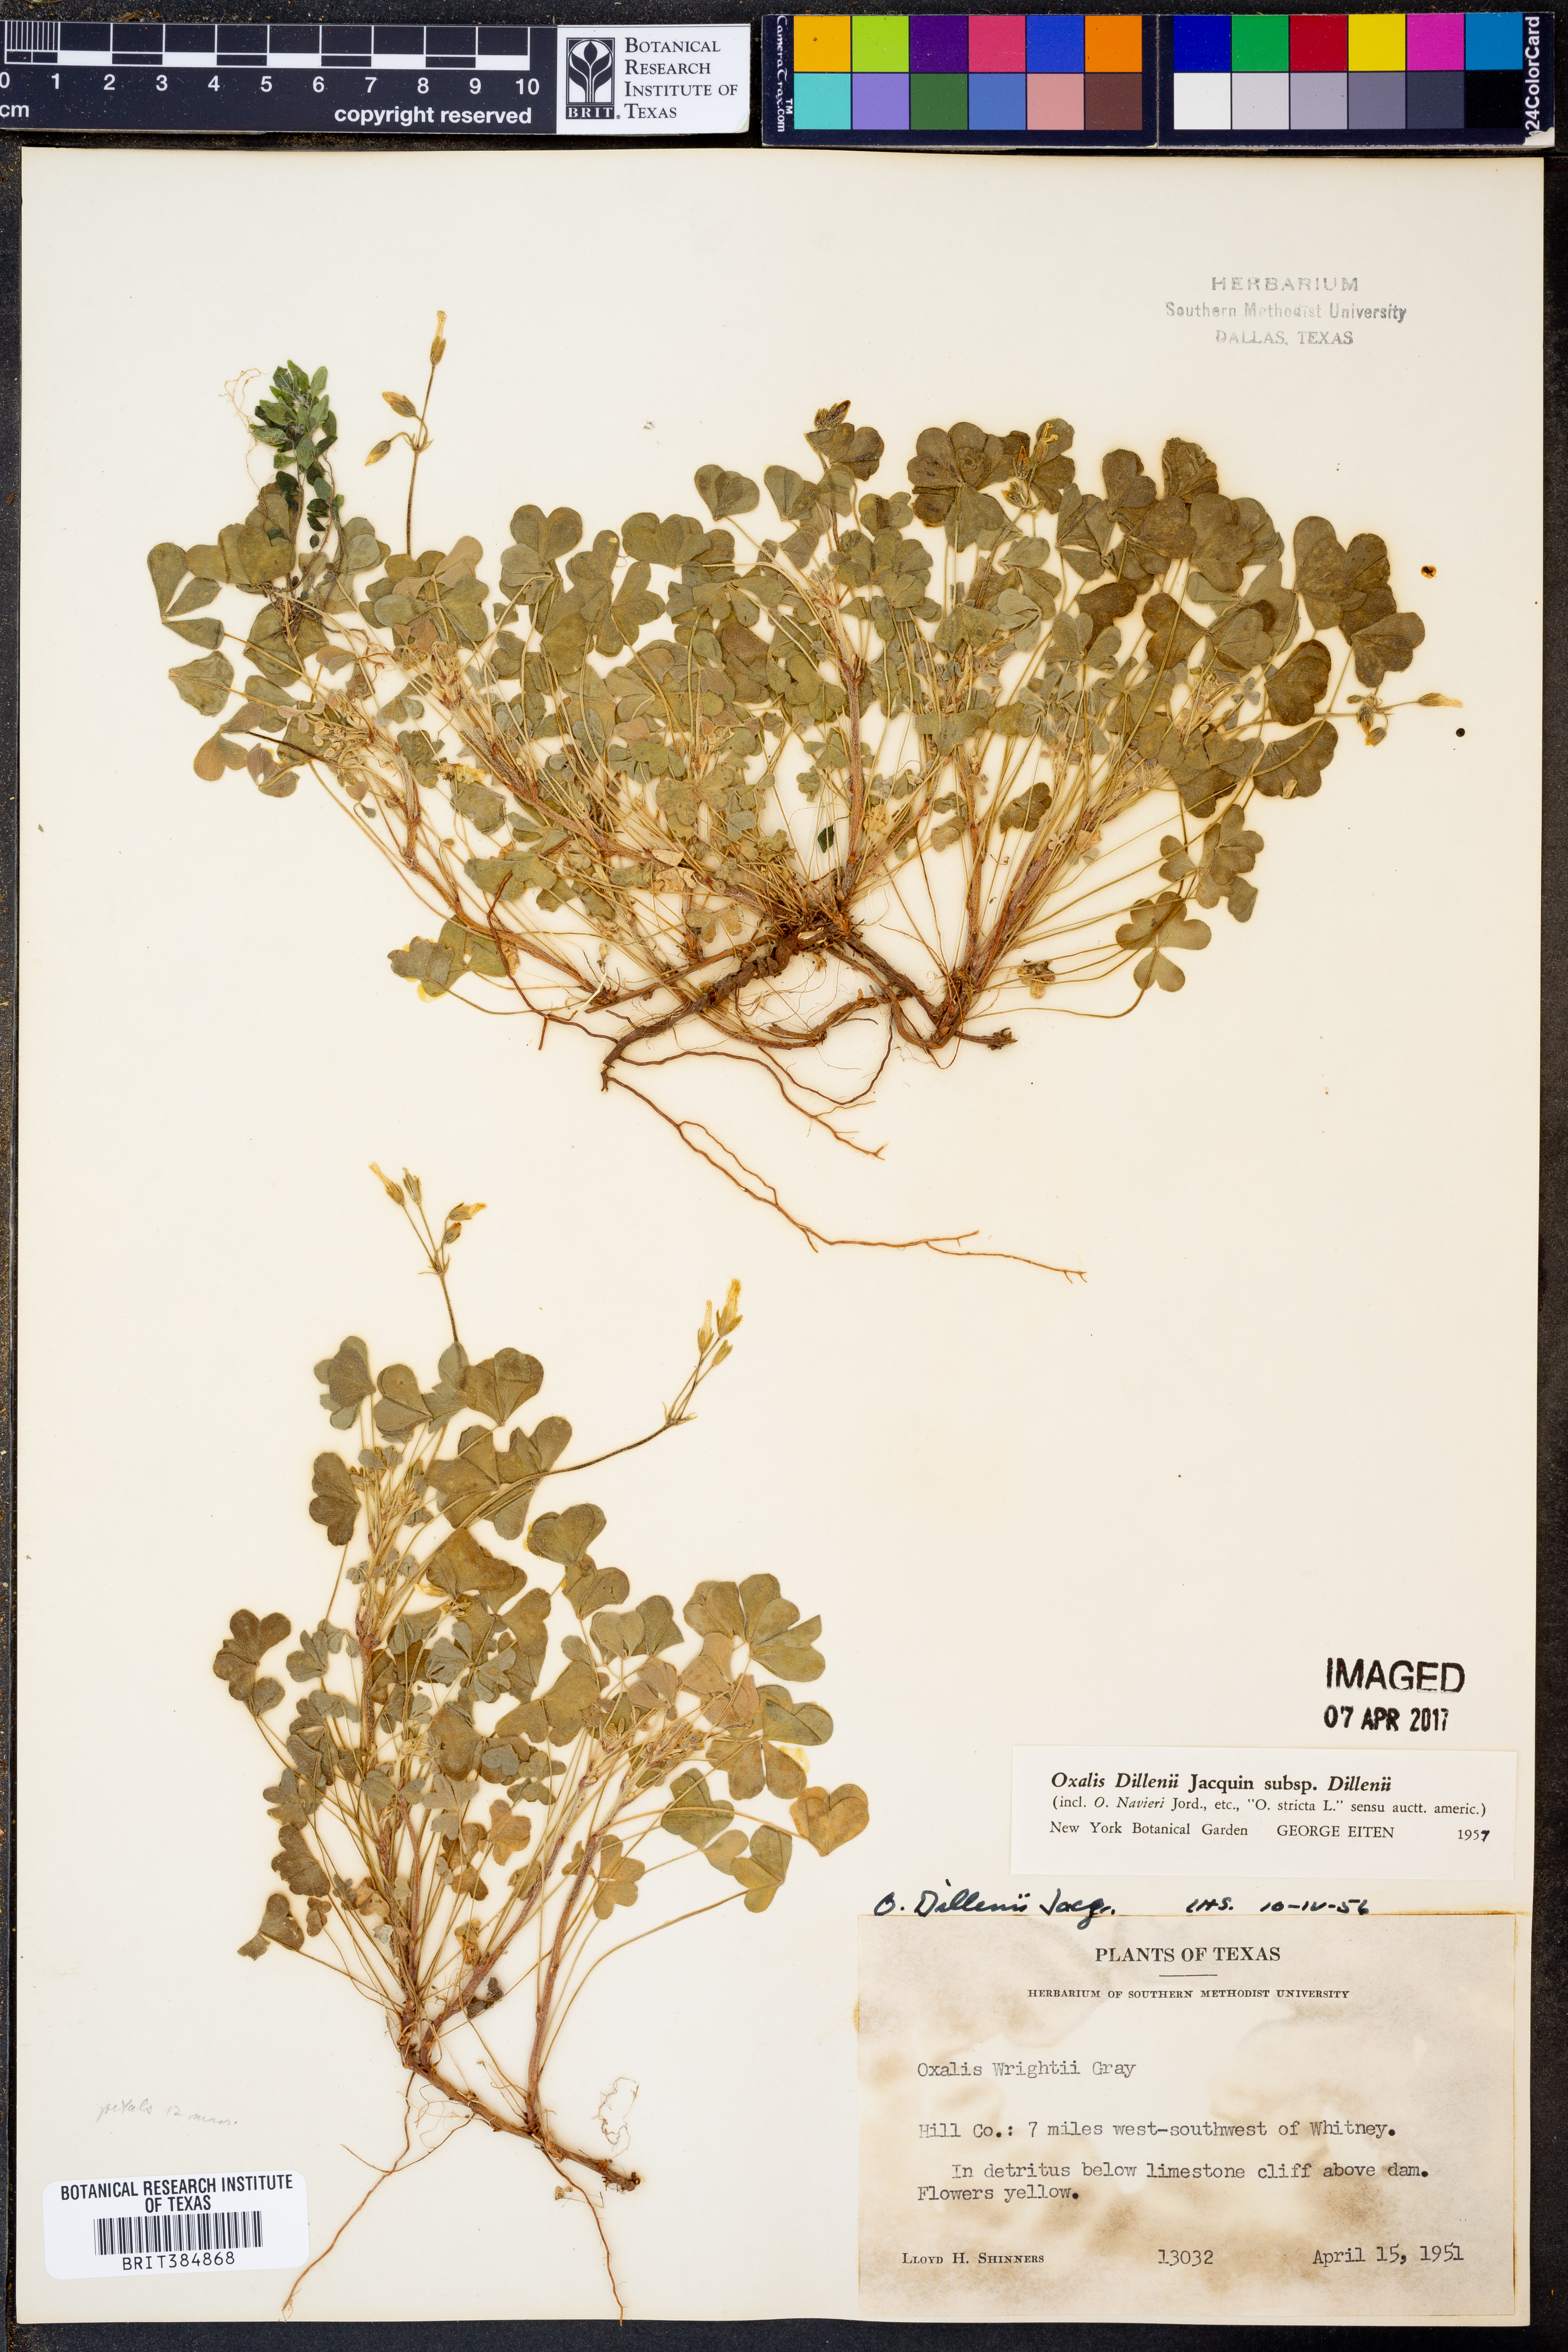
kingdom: Plantae
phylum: Tracheophyta
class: Magnoliopsida
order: Oxalidales
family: Oxalidaceae
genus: Oxalis
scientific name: Oxalis dillenii
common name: Sussex yellow-sorrel
